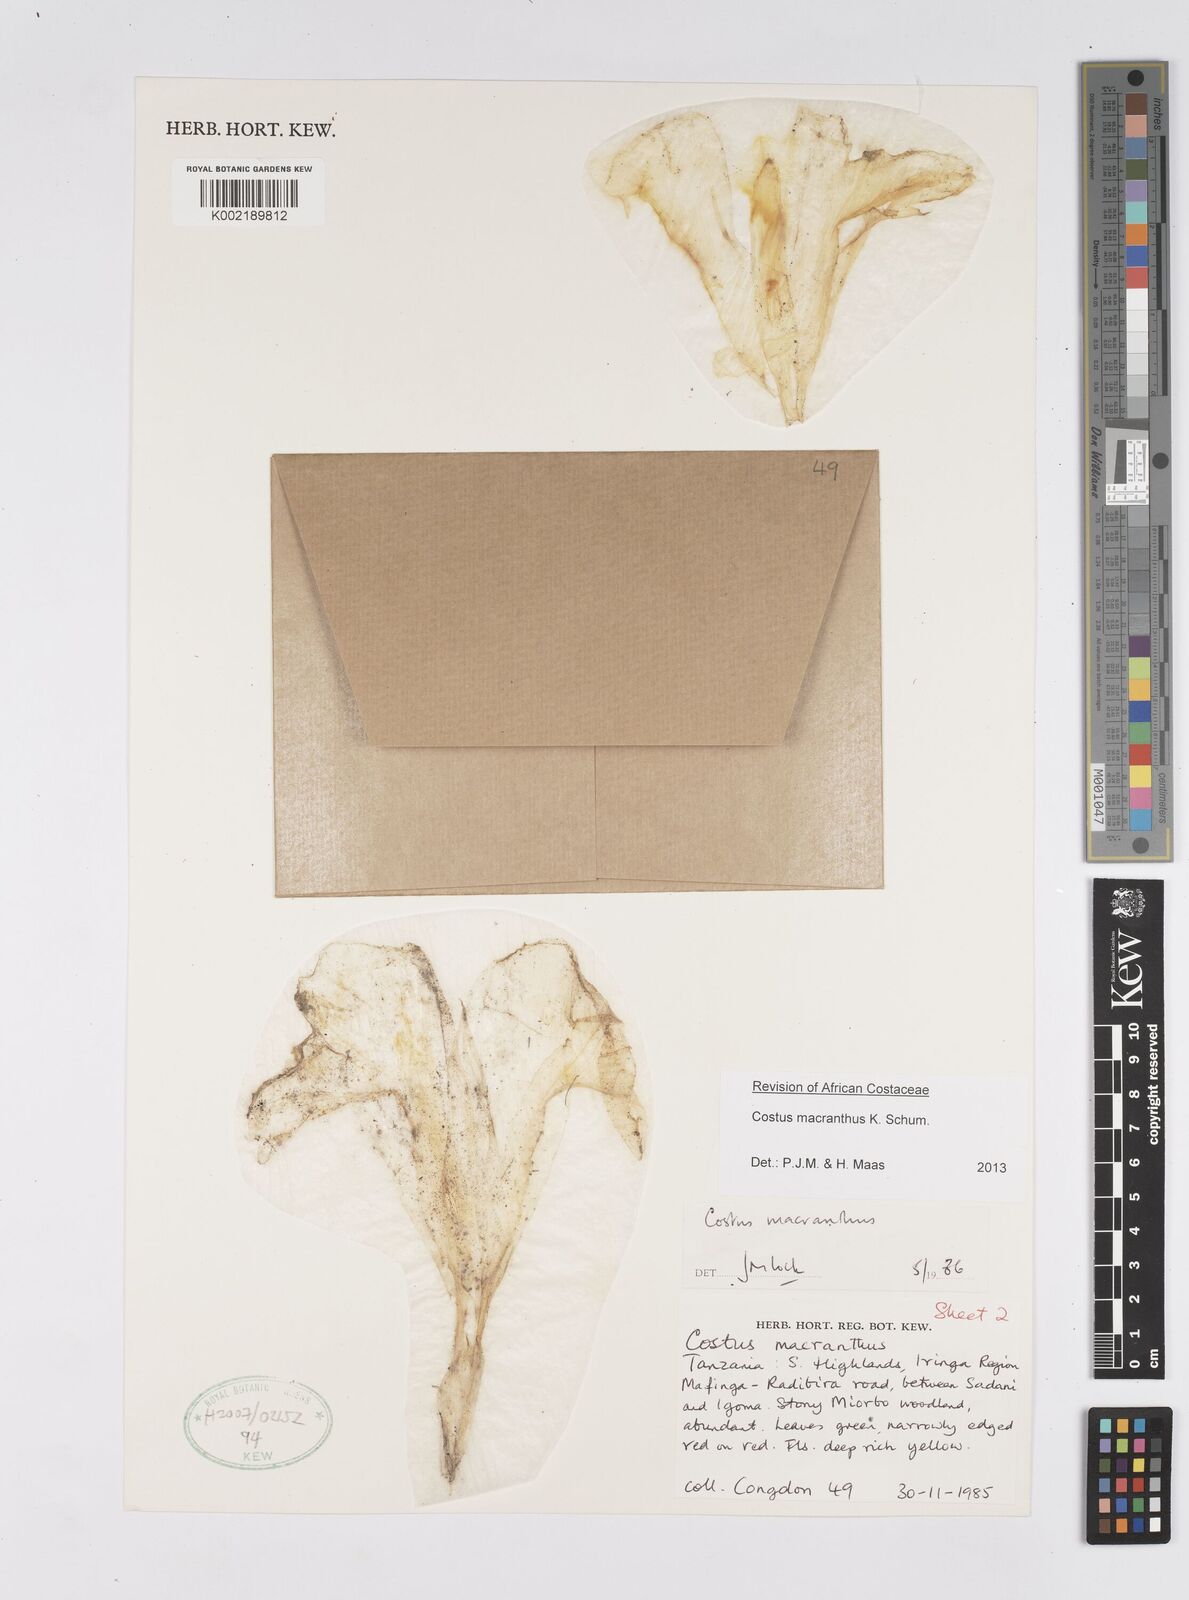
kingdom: Plantae
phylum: Tracheophyta
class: Liliopsida
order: Zingiberales
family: Costaceae
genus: Costus
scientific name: Costus macranthus
